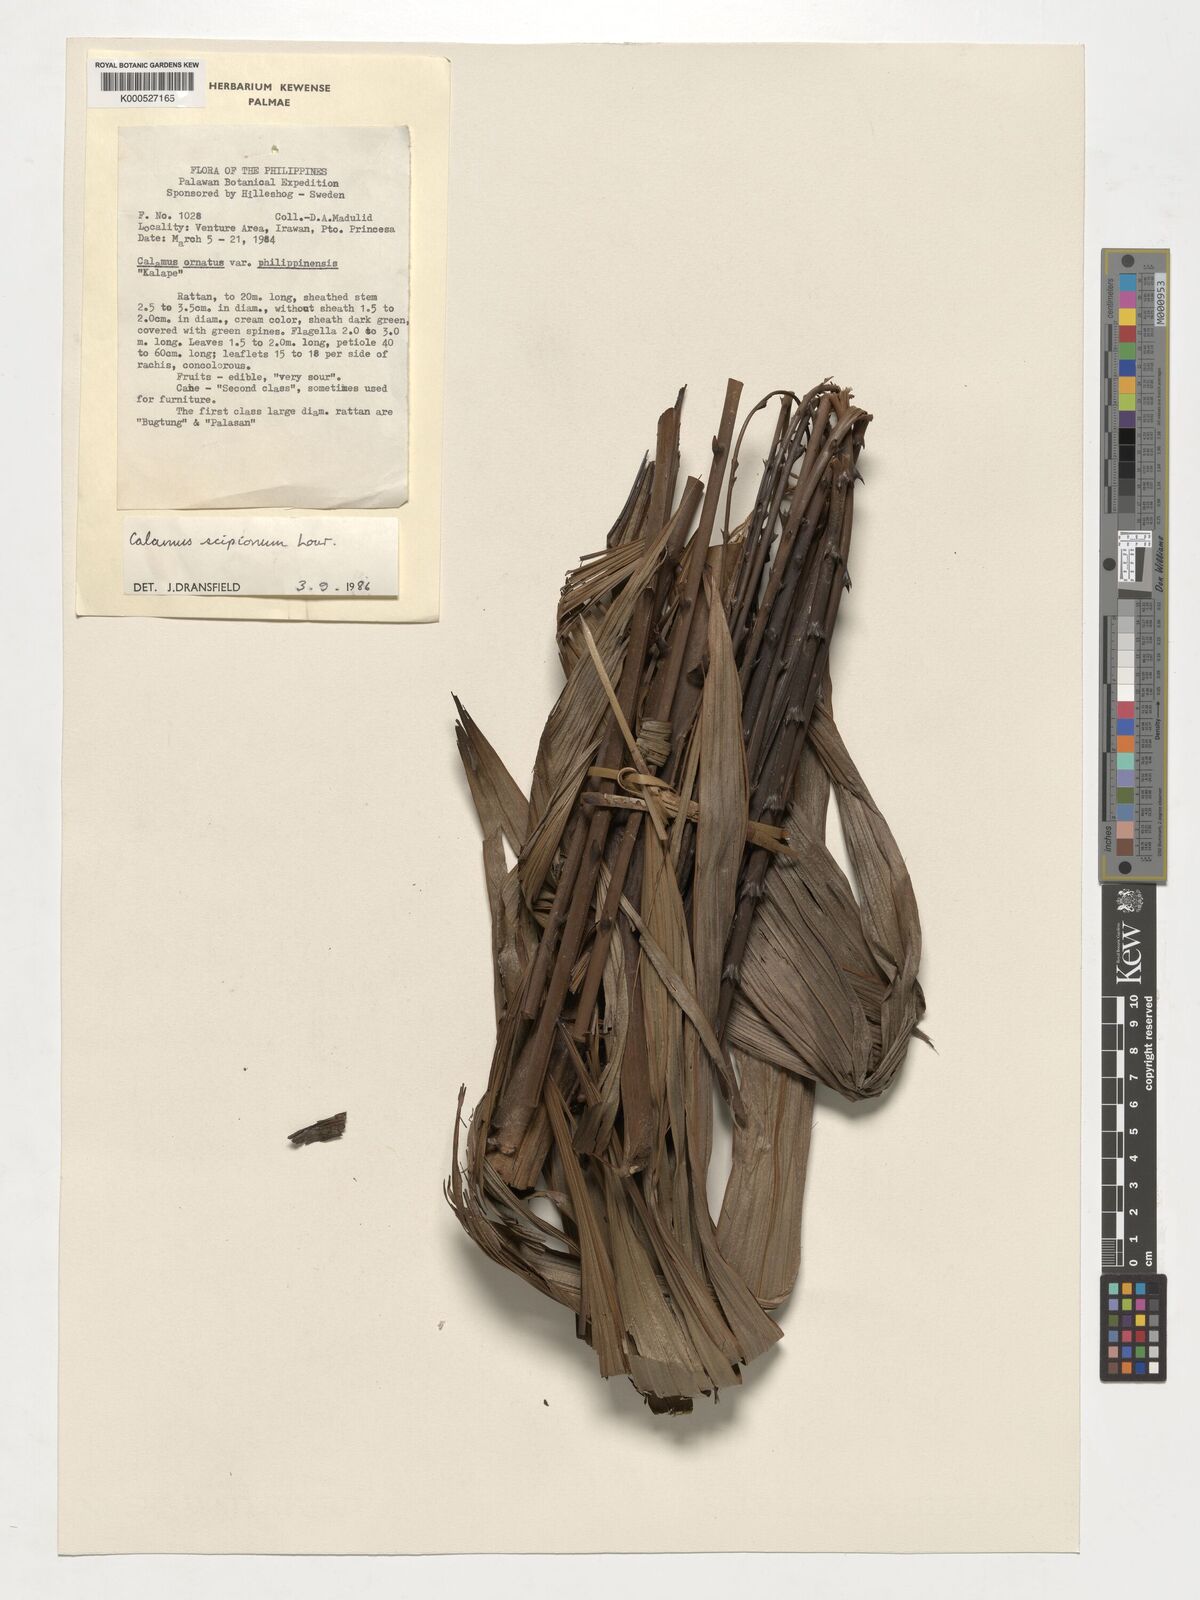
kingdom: Plantae
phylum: Tracheophyta
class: Liliopsida
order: Arecales
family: Arecaceae
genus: Calamus
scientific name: Calamus scipionum
